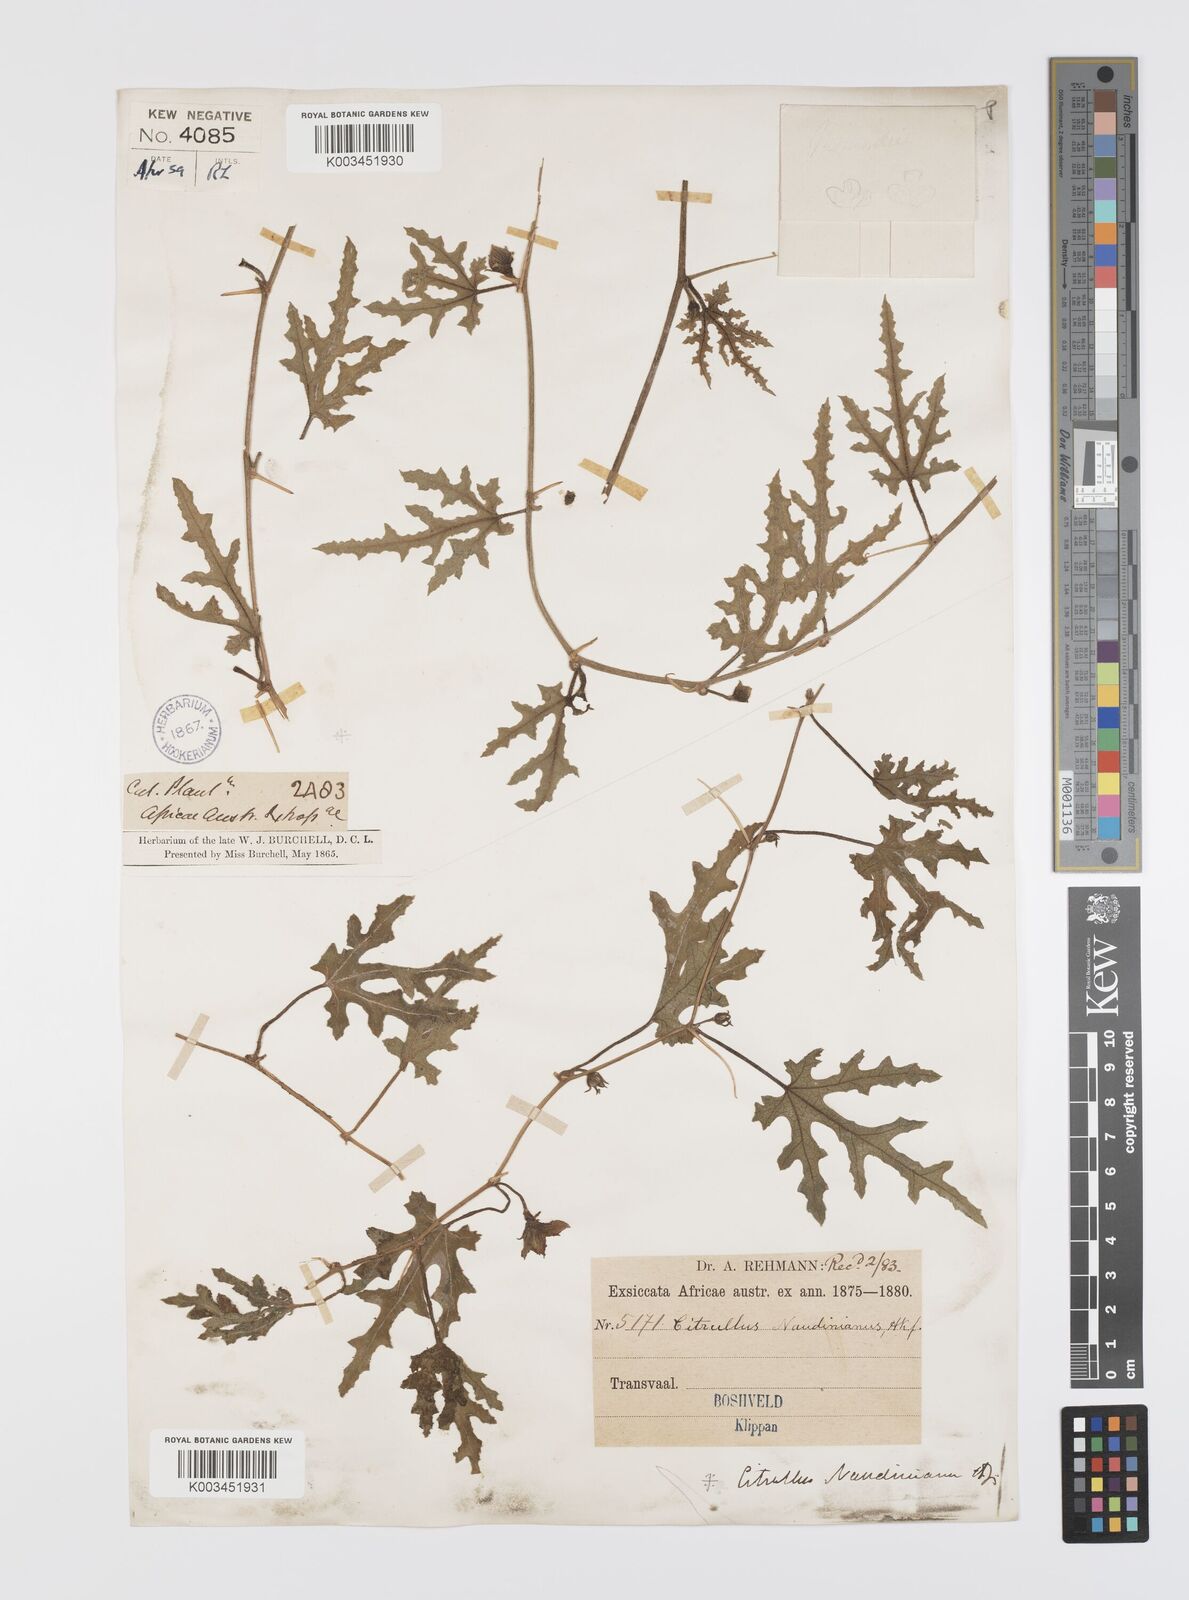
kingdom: Plantae
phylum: Tracheophyta
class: Magnoliopsida
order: Cucurbitales
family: Cucurbitaceae
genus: Citrullus
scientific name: Citrullus naudinianus
